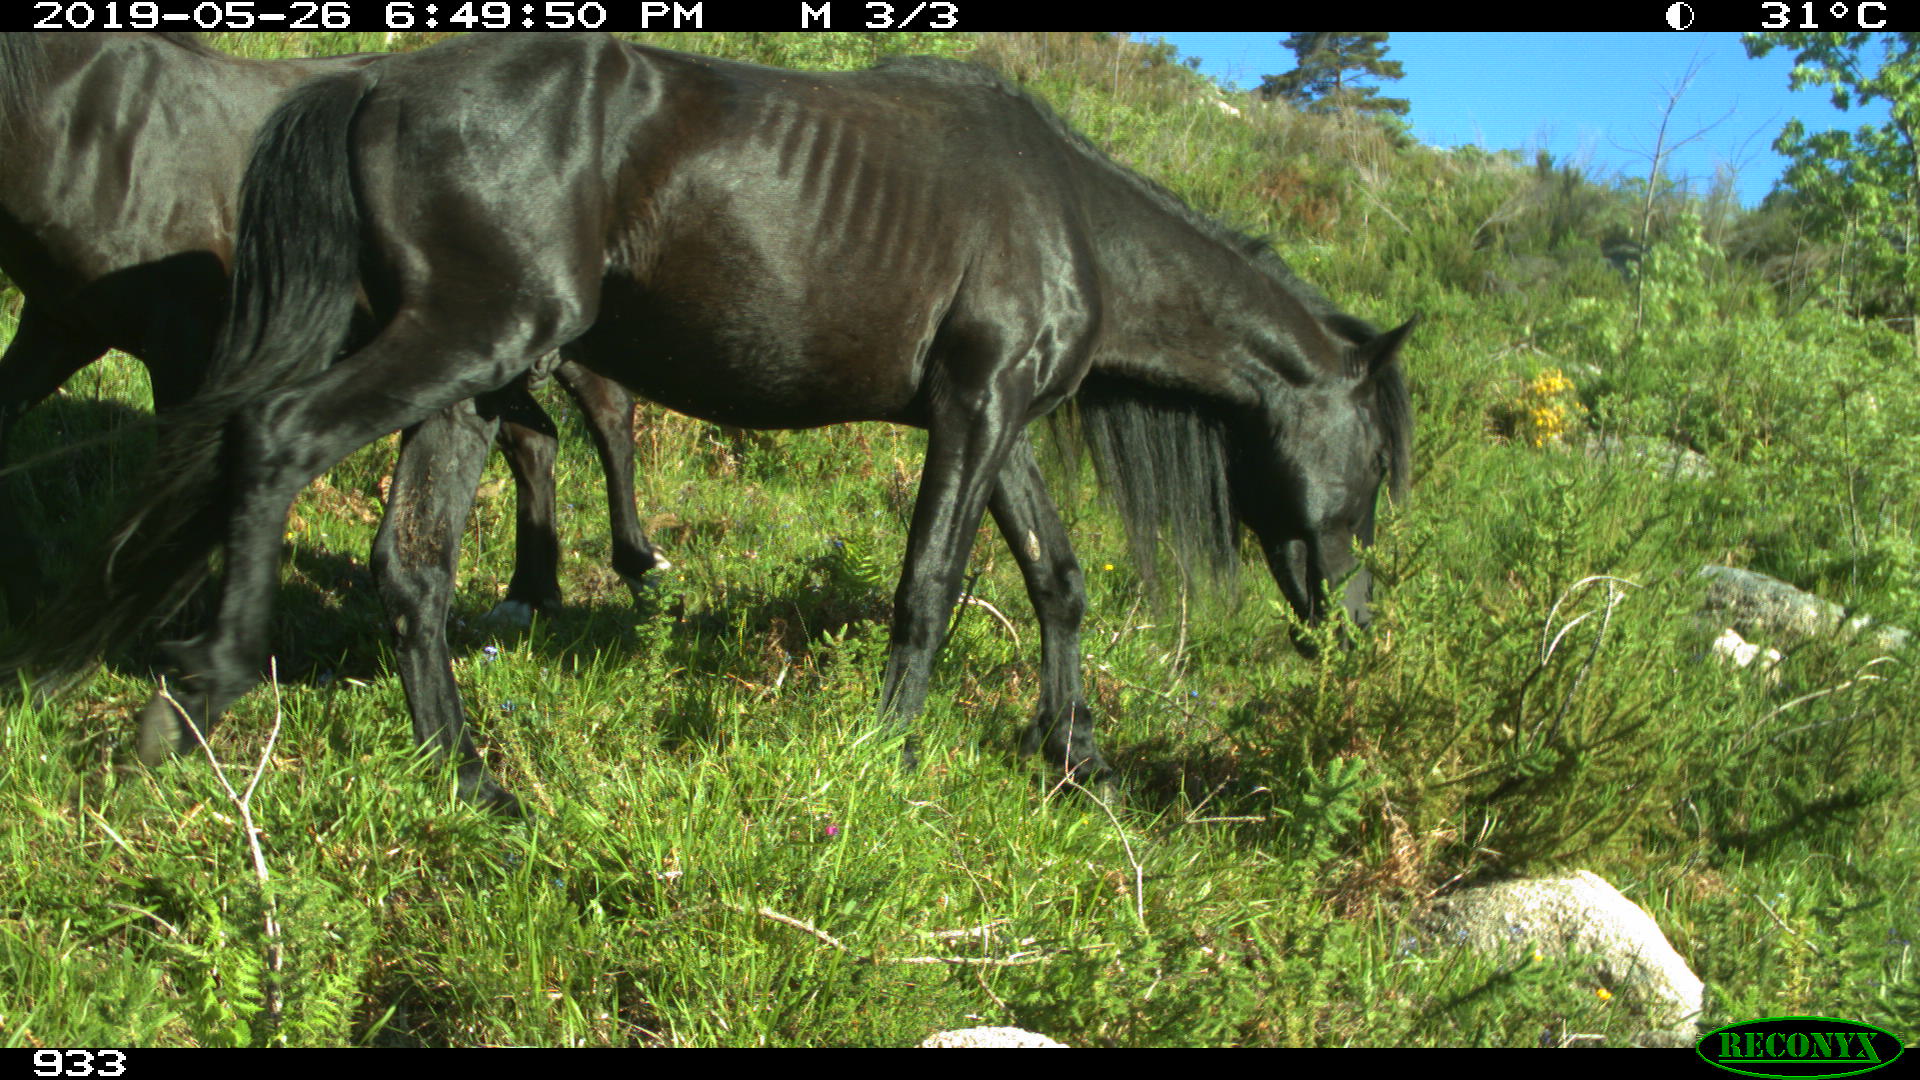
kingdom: Animalia
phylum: Chordata
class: Mammalia
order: Perissodactyla
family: Equidae
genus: Equus
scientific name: Equus caballus
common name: Horse
